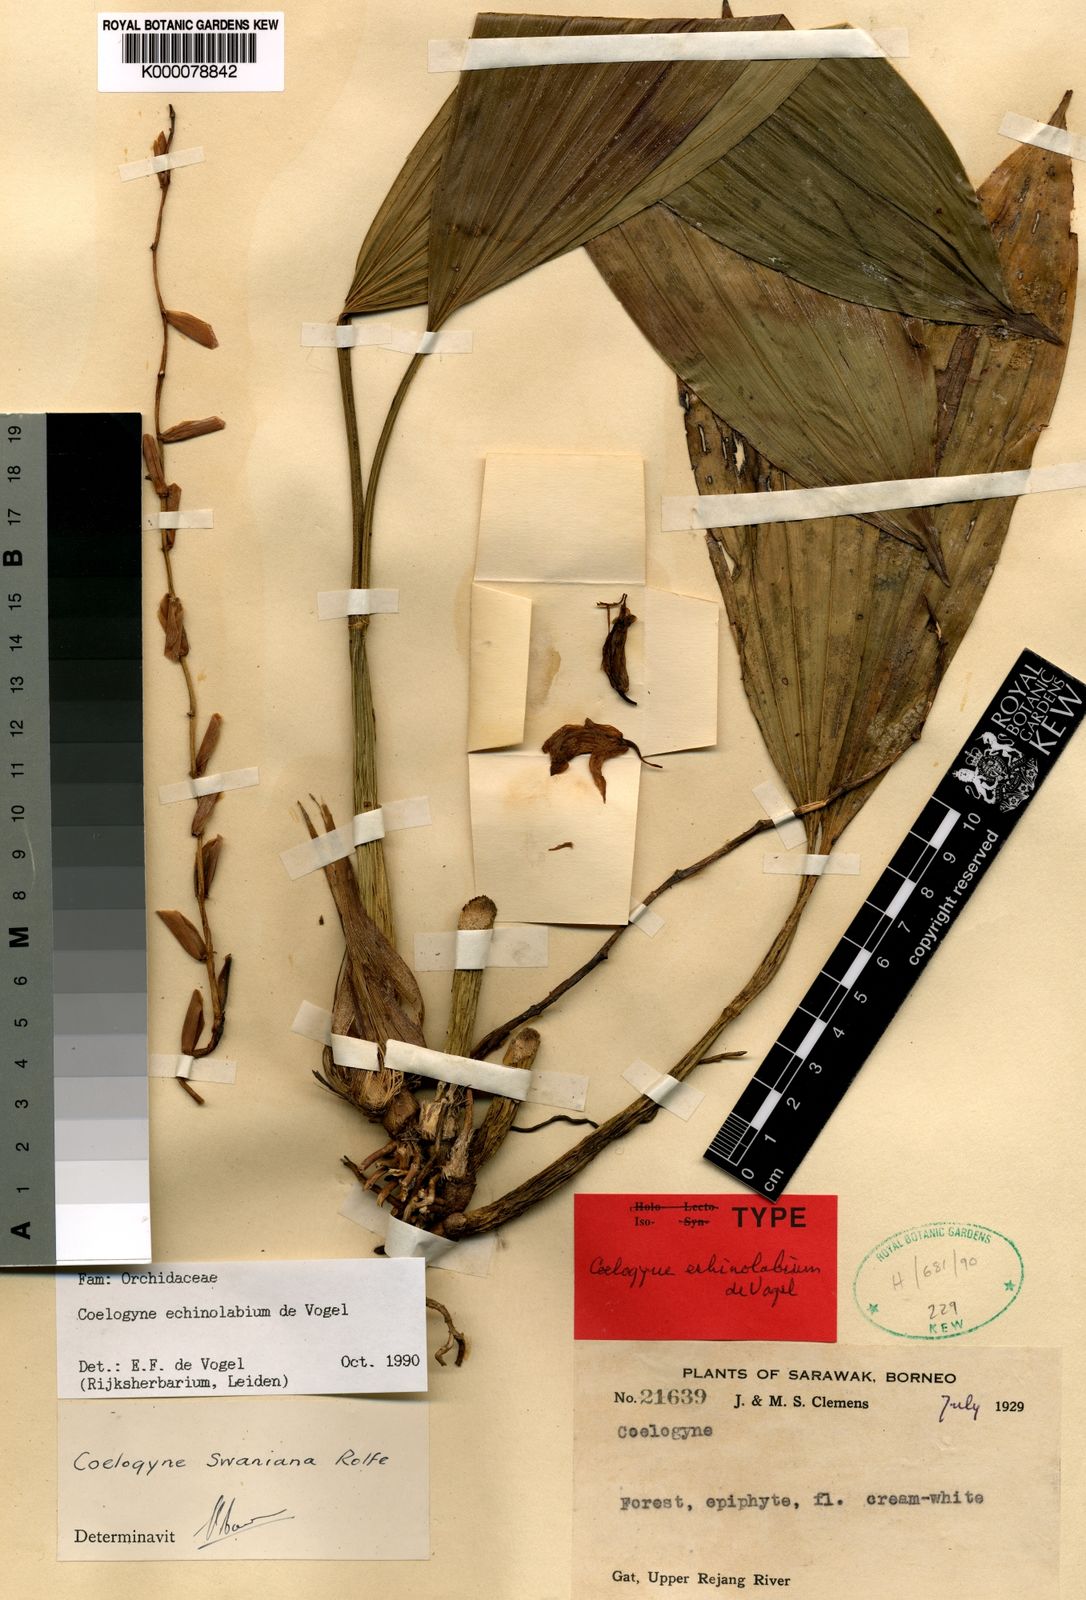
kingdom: Plantae
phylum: Tracheophyta
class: Liliopsida
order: Asparagales
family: Orchidaceae
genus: Coelogyne
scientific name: Coelogyne echinolabium
